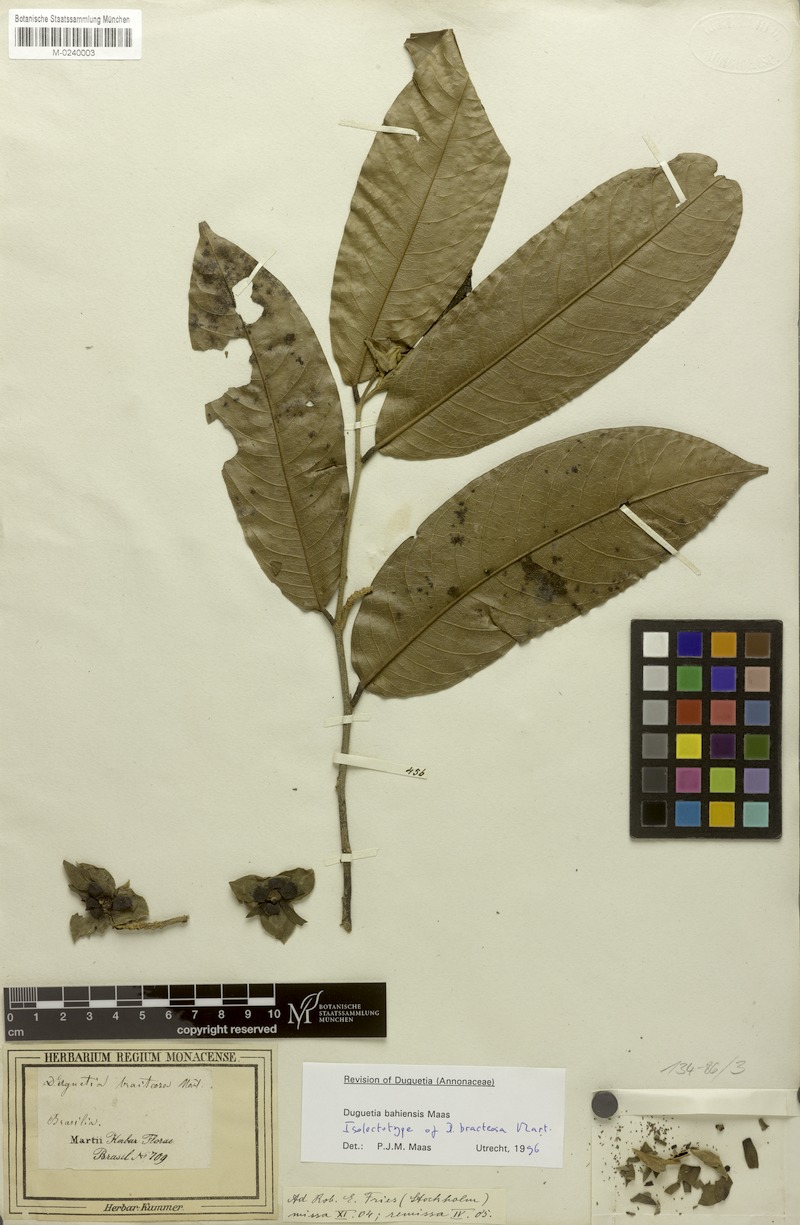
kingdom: Plantae
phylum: Tracheophyta
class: Magnoliopsida
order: Magnoliales
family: Annonaceae
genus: Duguetia
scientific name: Duguetia bahiensis
